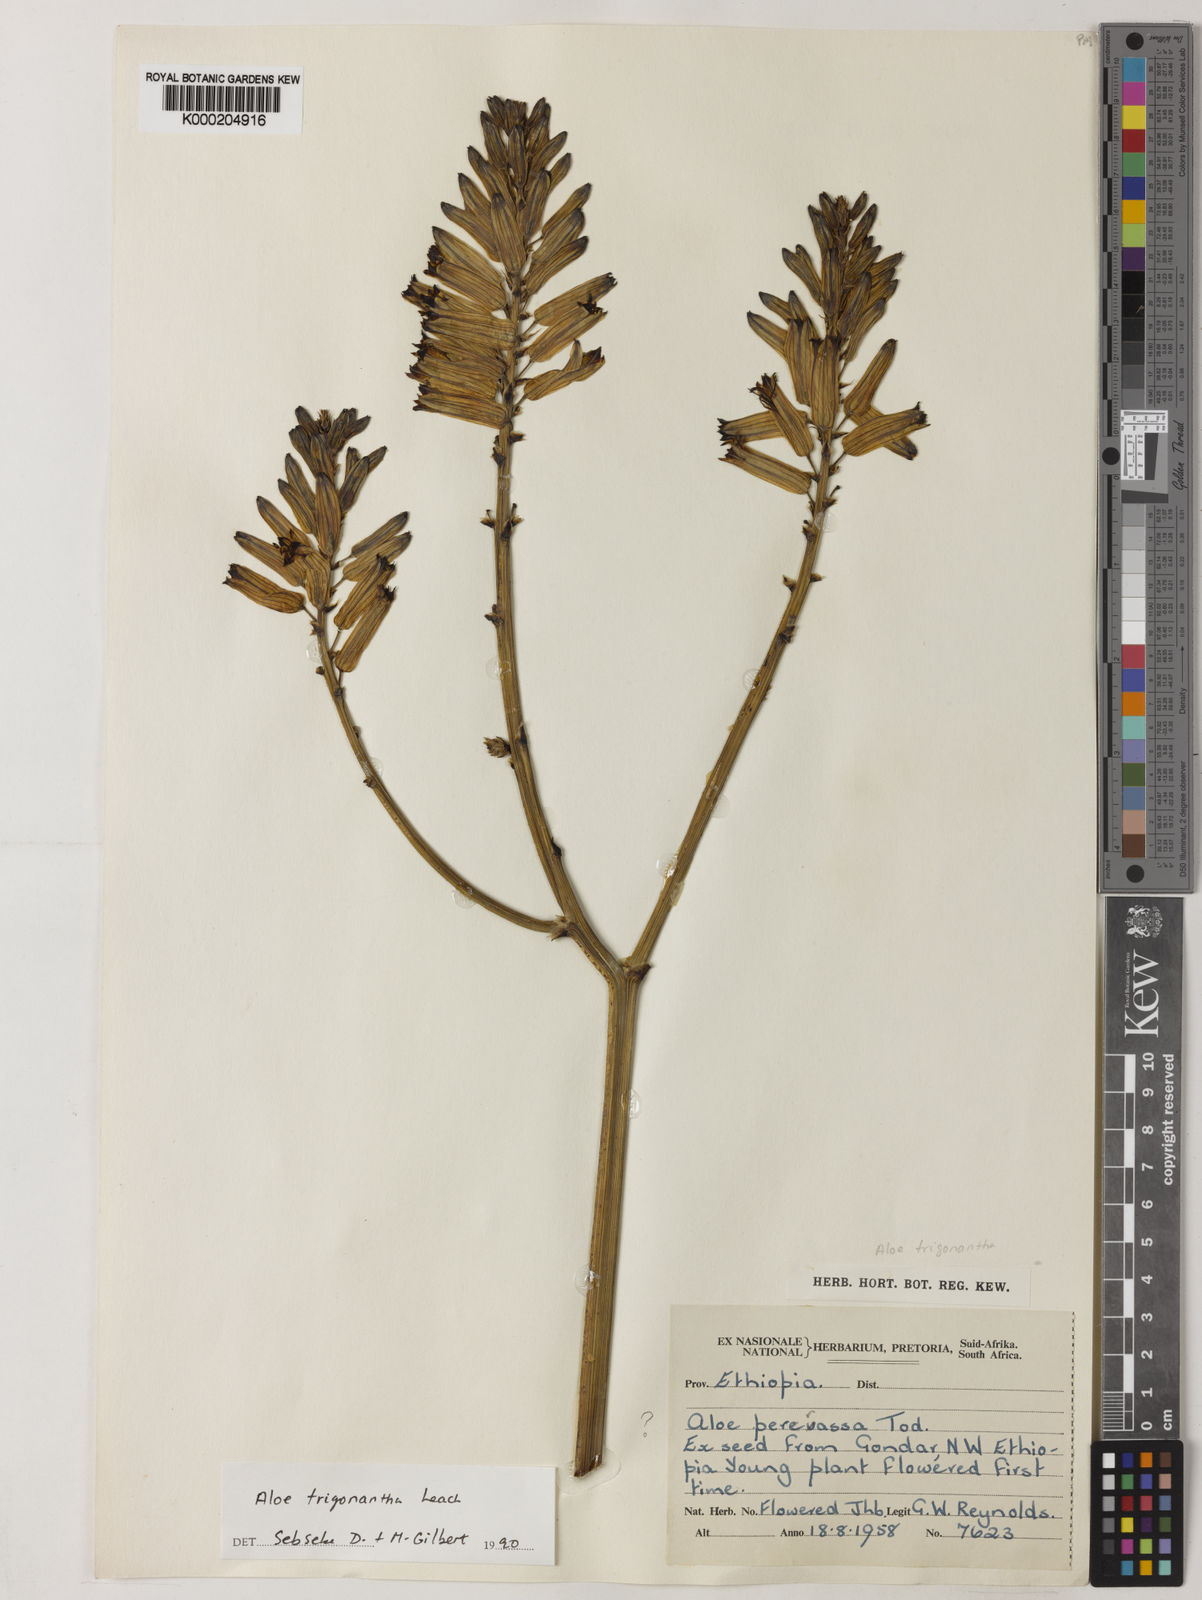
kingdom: Plantae
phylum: Tracheophyta
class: Liliopsida
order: Asparagales
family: Asphodelaceae
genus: Aloe
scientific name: Aloe trigonantha
